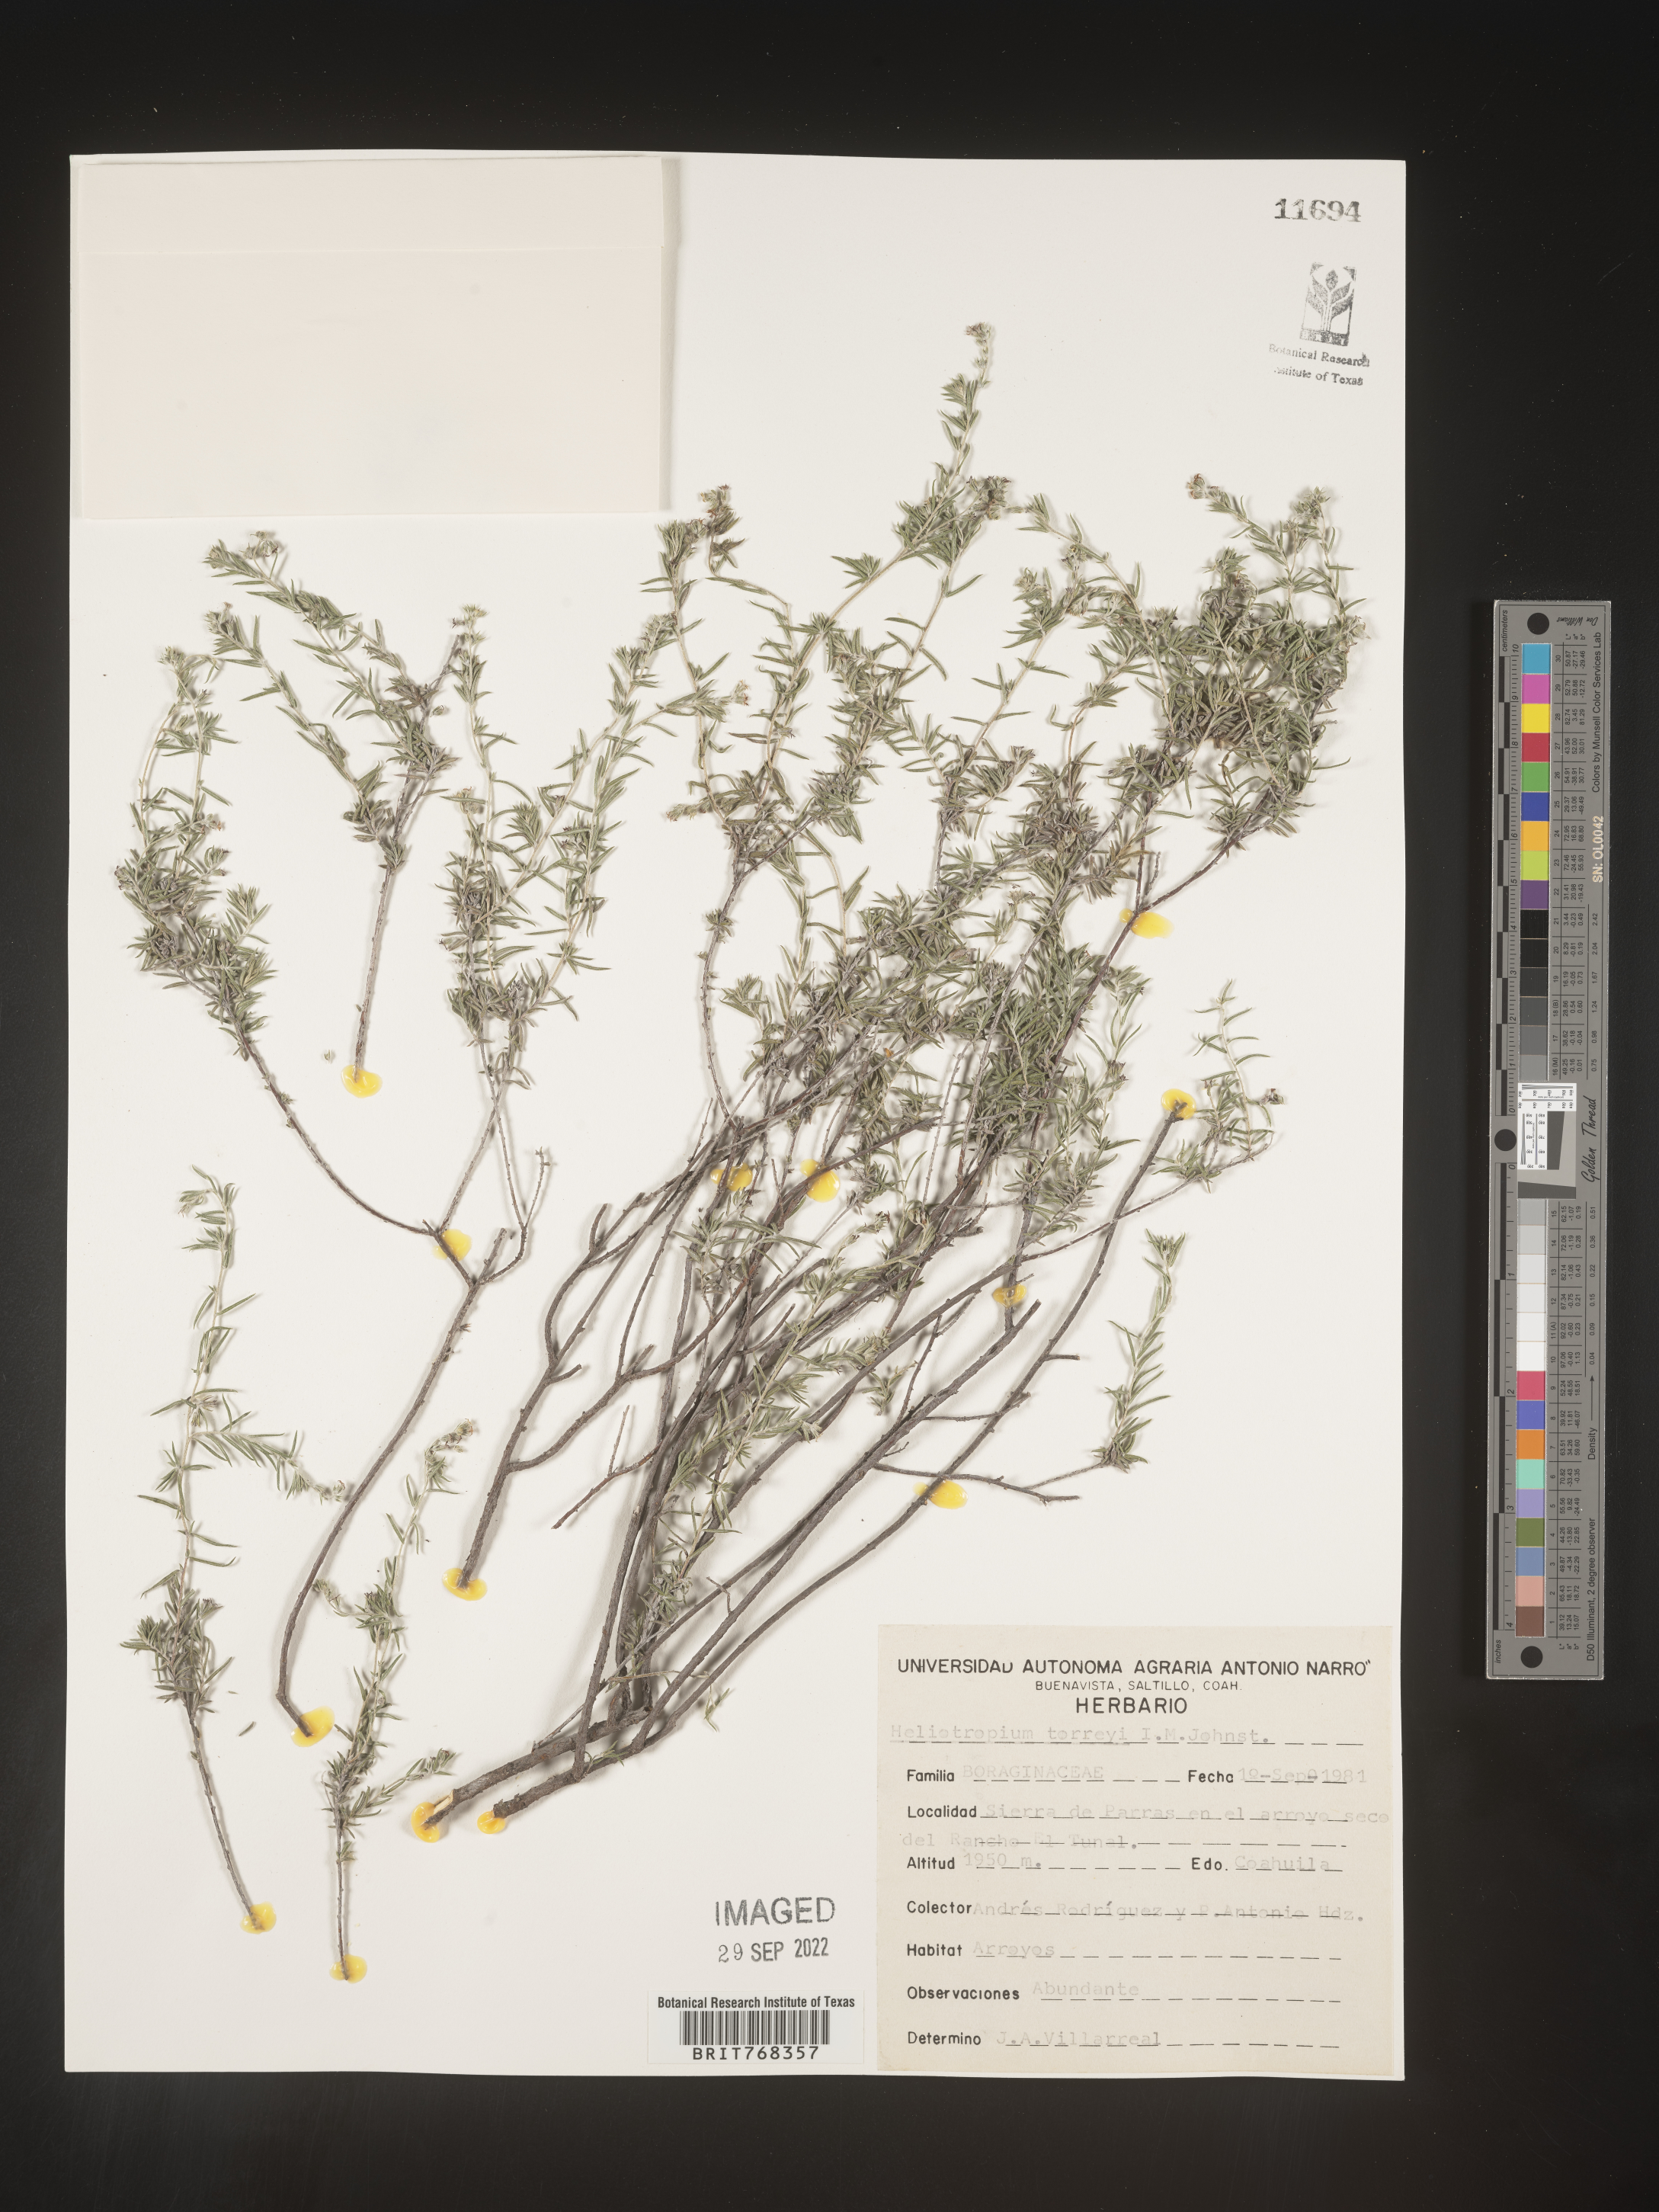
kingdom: Plantae
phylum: Tracheophyta
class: Magnoliopsida
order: Boraginales
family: Heliotropiaceae
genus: Heliotropium
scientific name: Heliotropium
